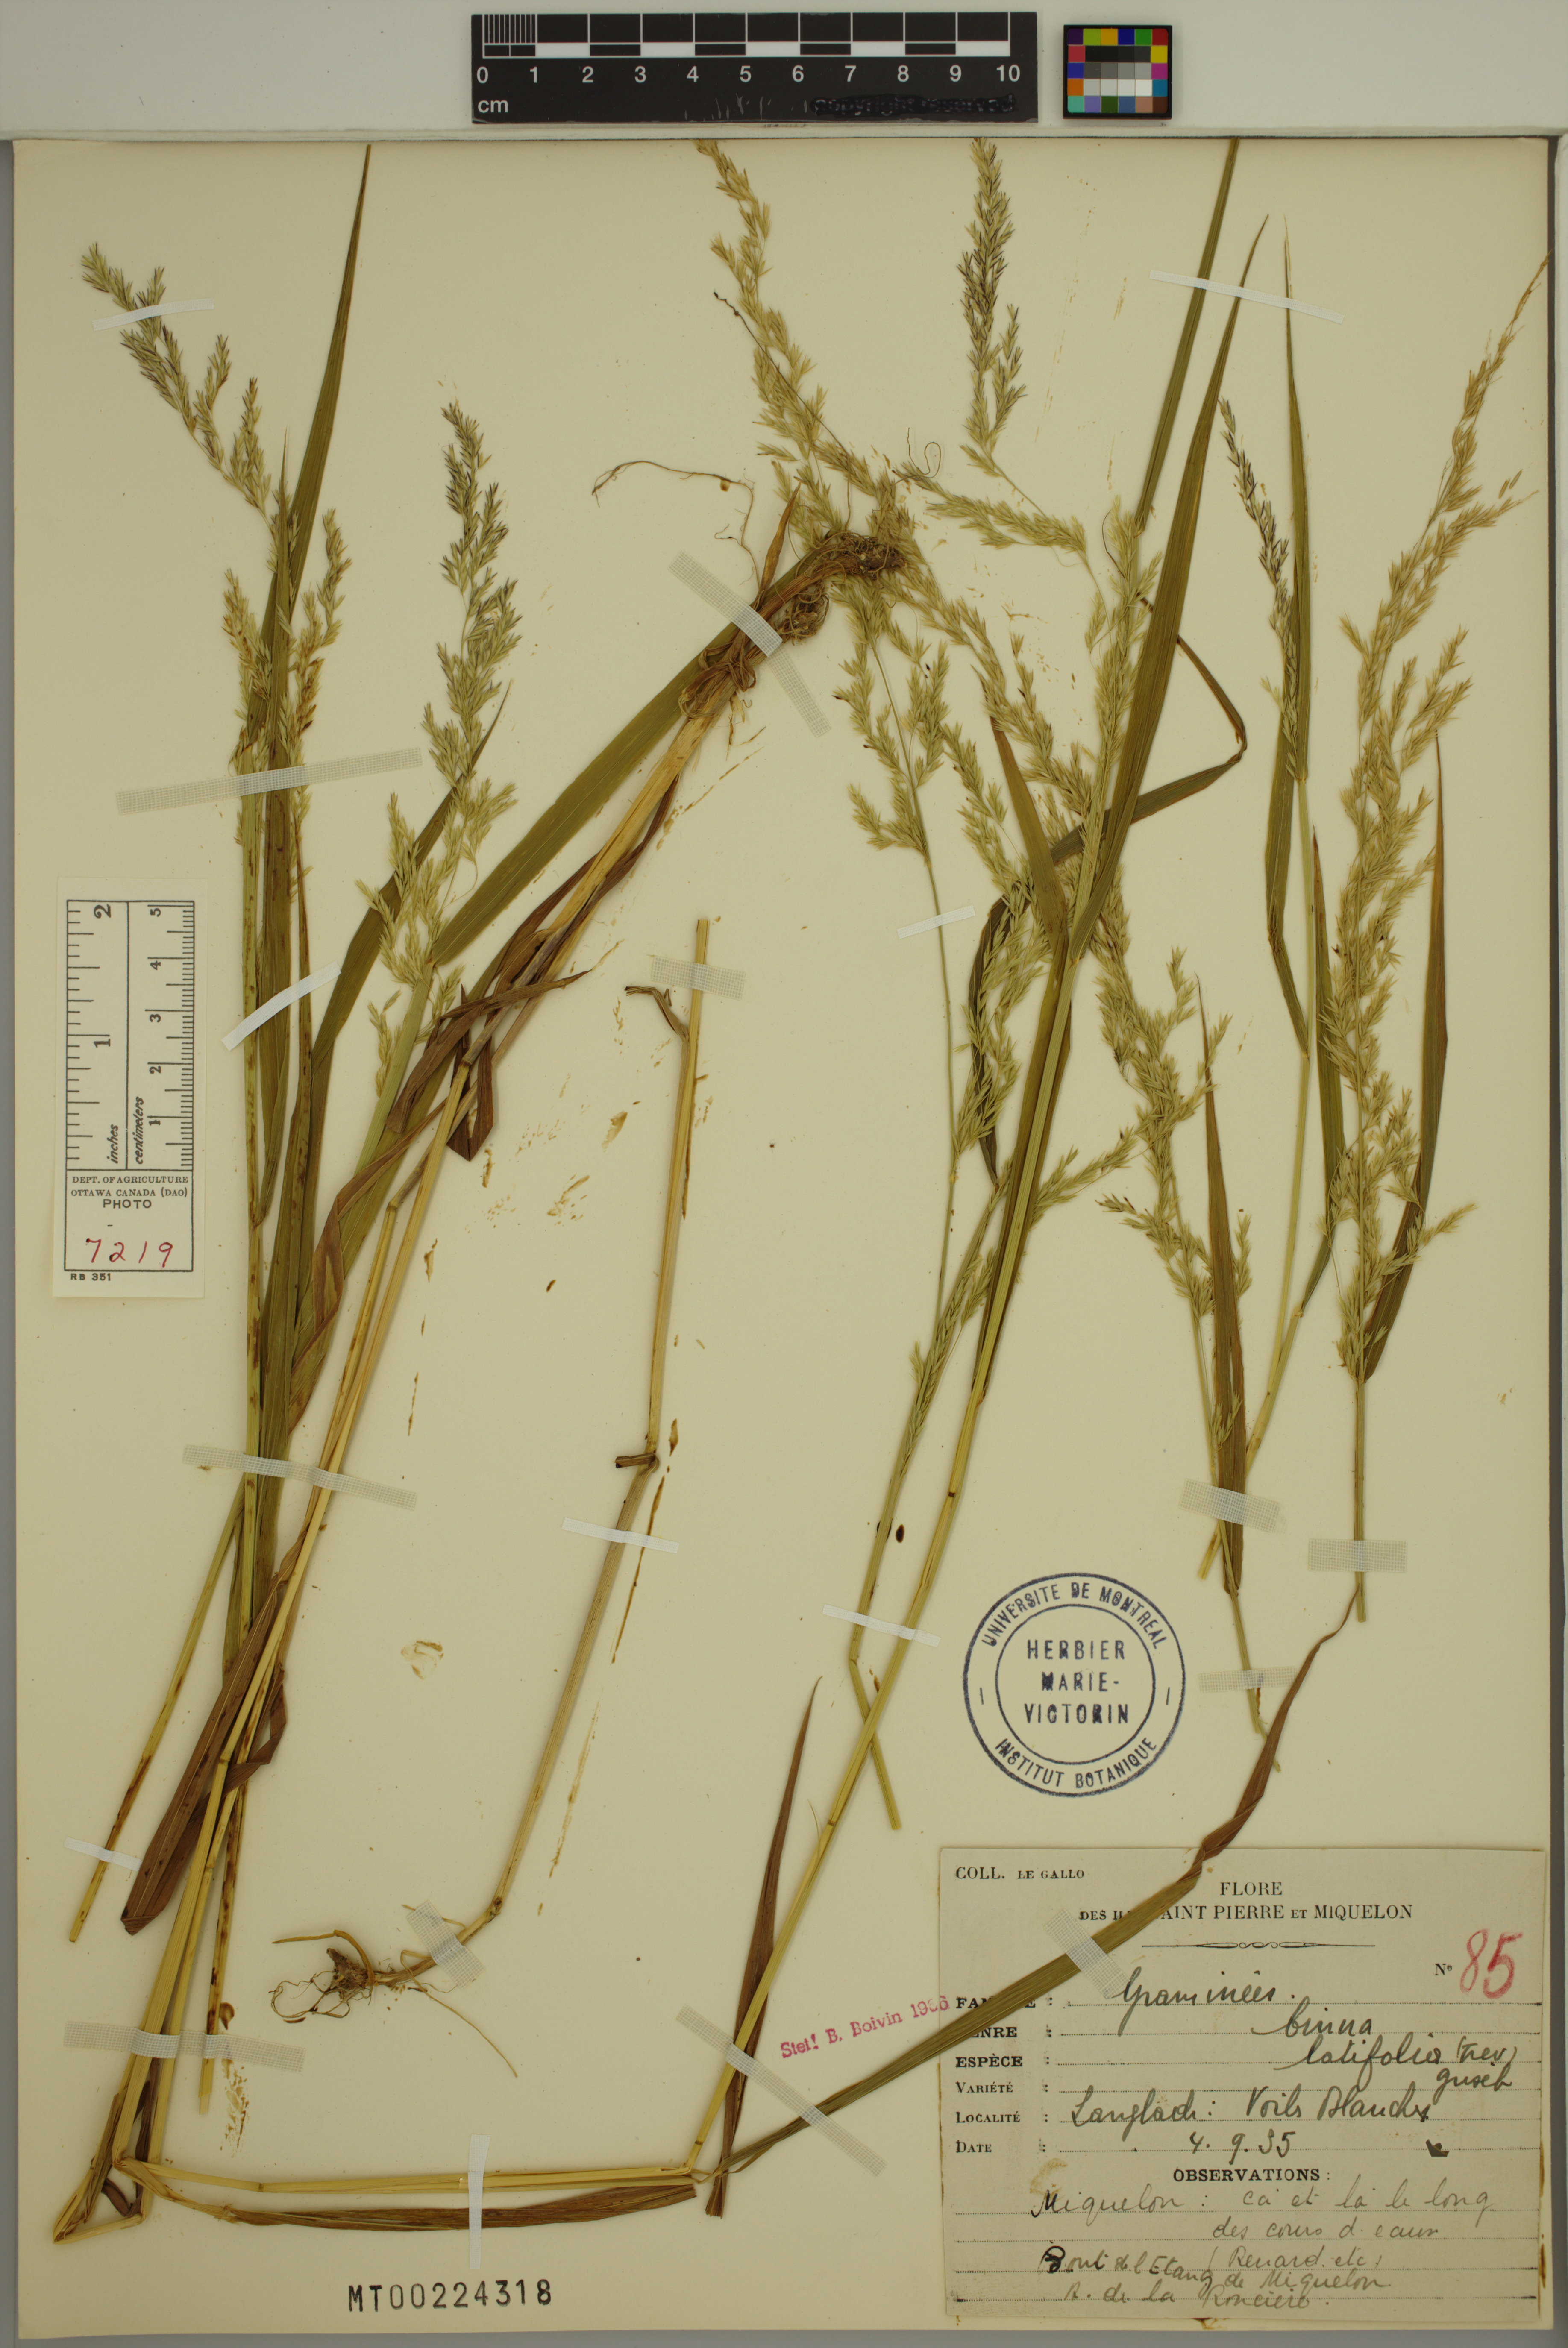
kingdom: Plantae
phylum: Tracheophyta
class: Liliopsida
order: Poales
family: Poaceae
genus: Cinna
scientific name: Cinna latifolia
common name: Drooping woodreed
